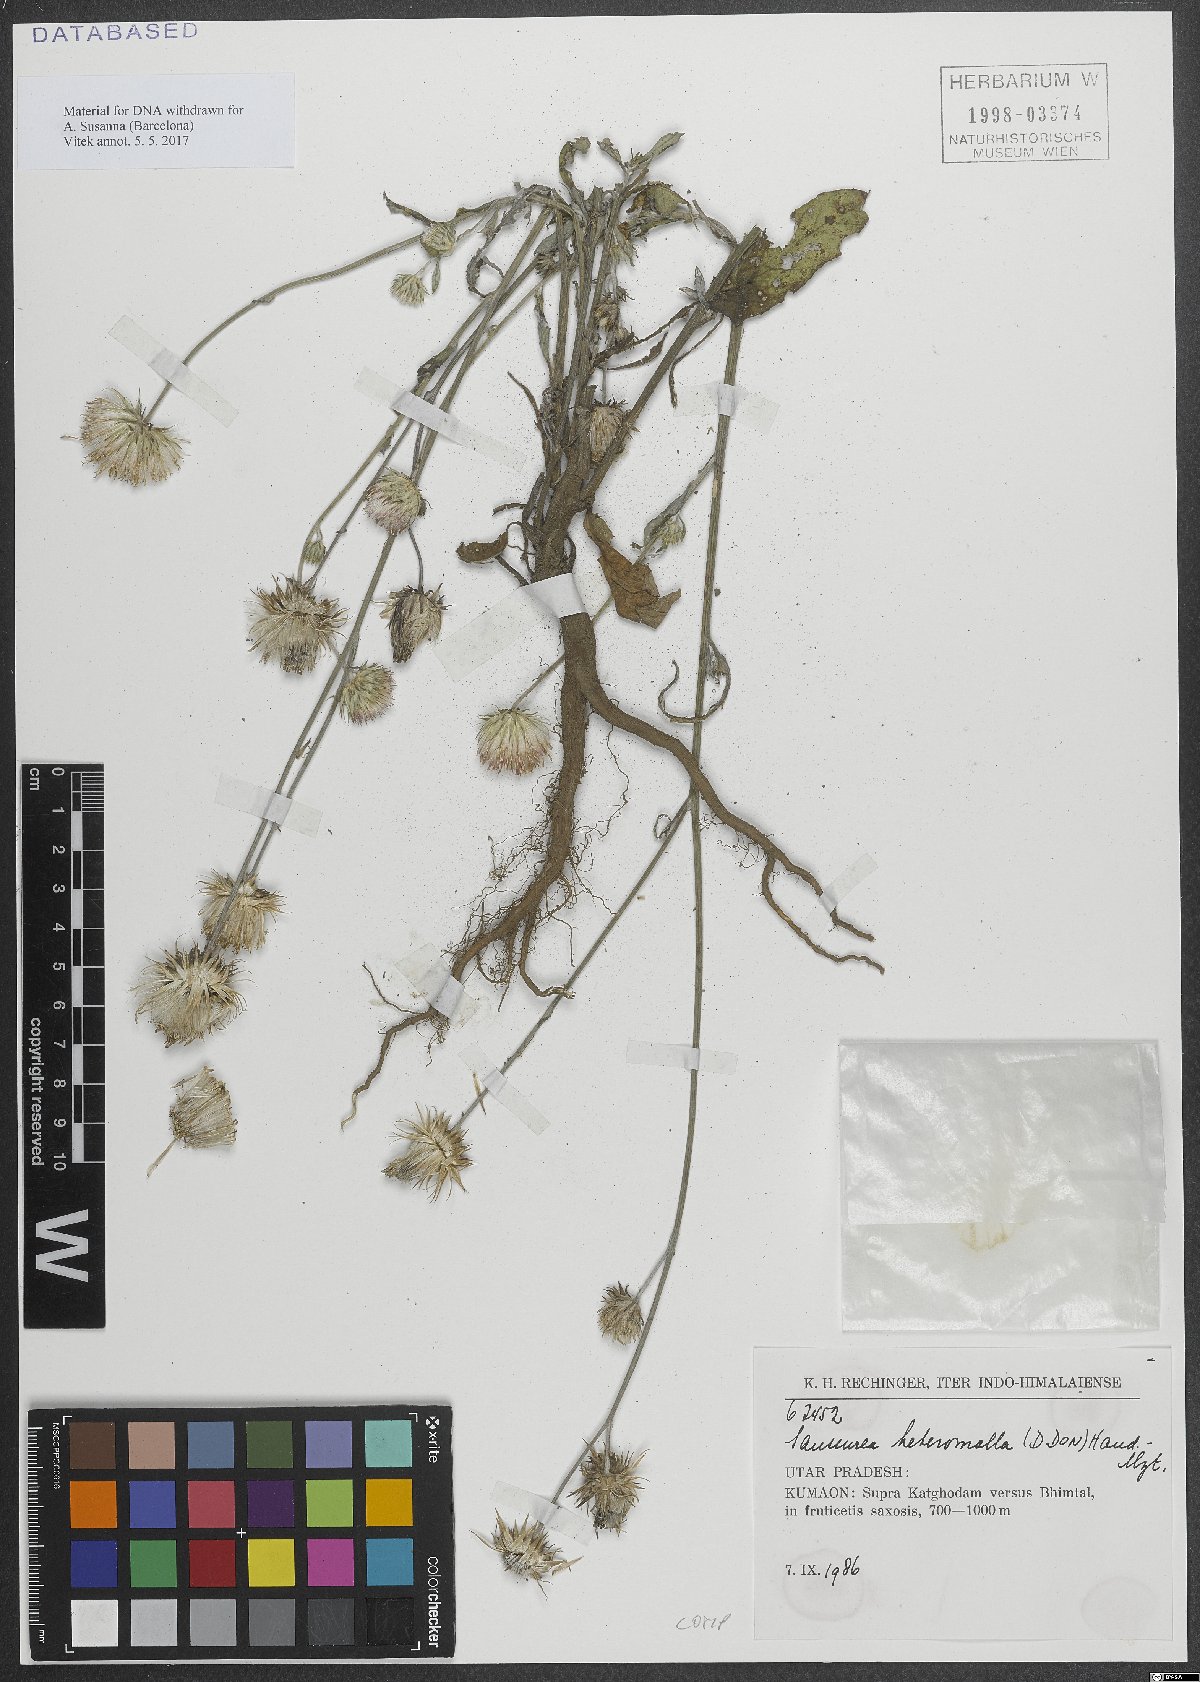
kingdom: Plantae
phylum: Tracheophyta
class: Magnoliopsida
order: Asterales
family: Asteraceae
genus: Jurinea
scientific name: Jurinea heteromalla
